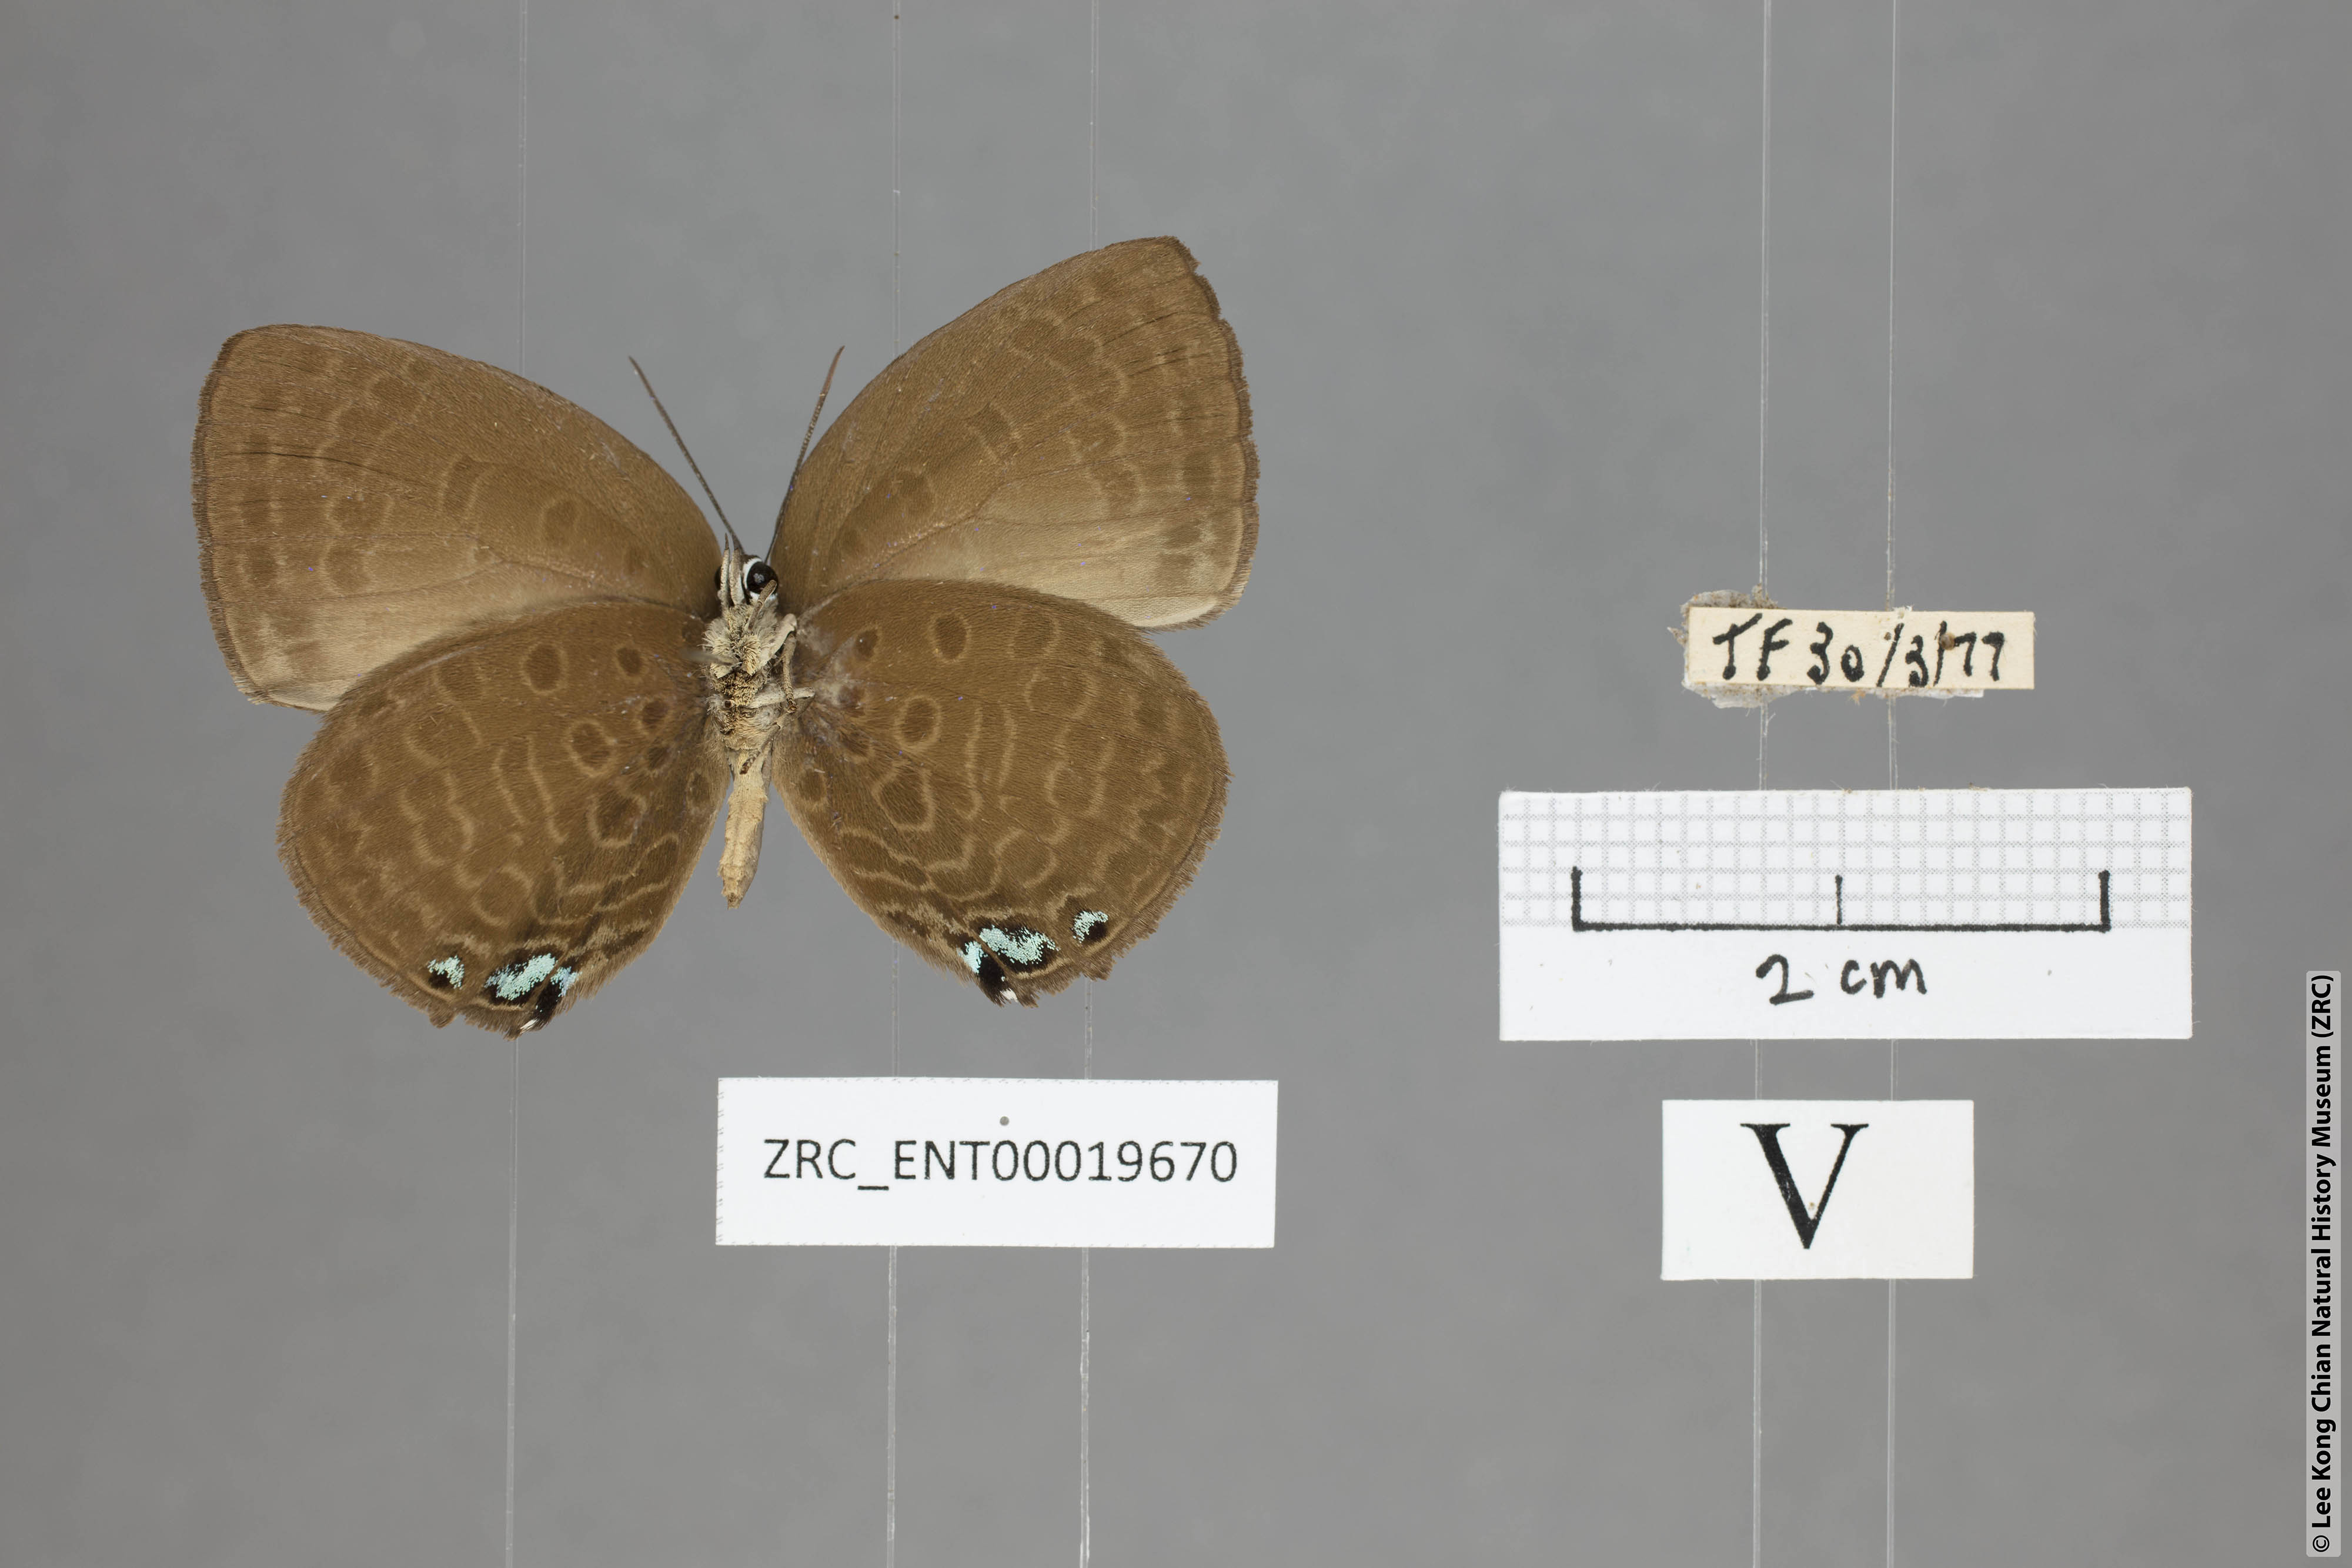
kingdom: Animalia
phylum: Arthropoda
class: Insecta
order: Lepidoptera
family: Lycaenidae
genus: Arhopala
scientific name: Arhopala moolaina
